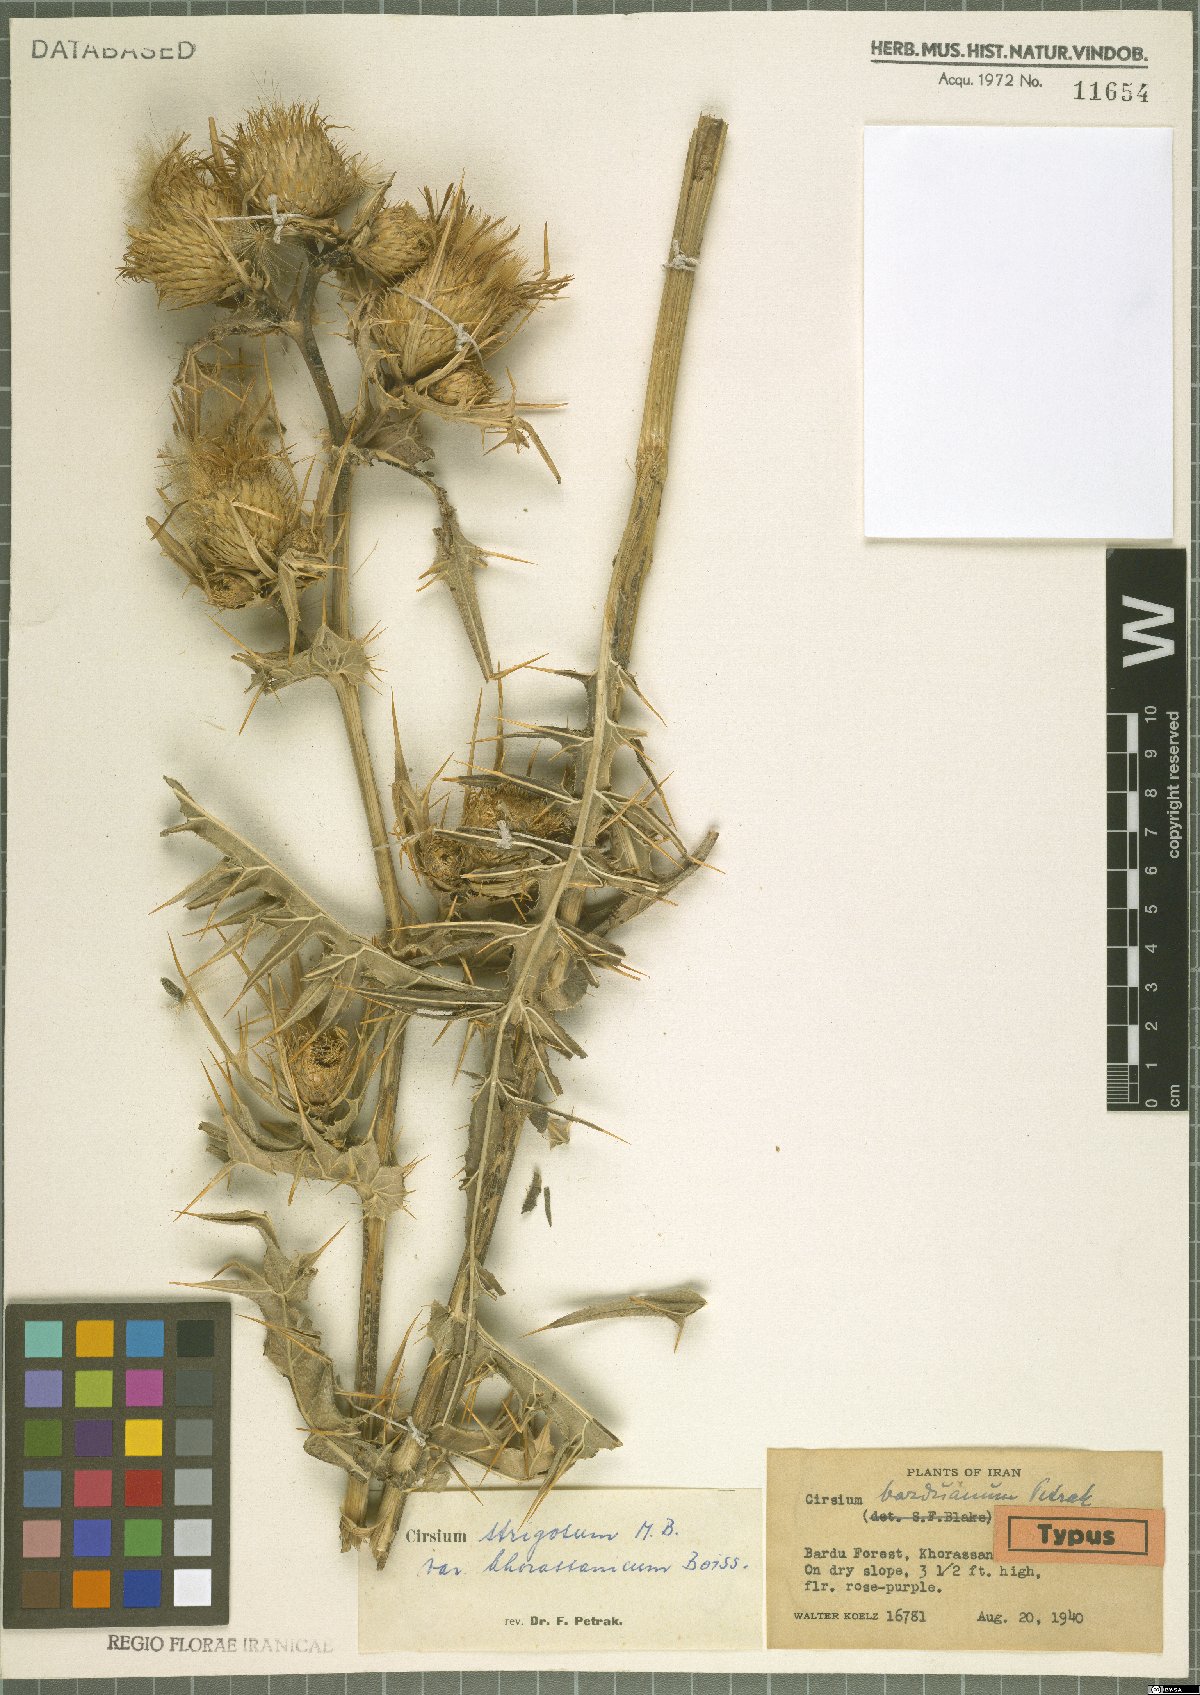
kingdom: Plantae
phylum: Tracheophyta
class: Magnoliopsida
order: Asterales
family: Asteraceae
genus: Cirsium
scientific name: Cirsium vulgare
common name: Bull thistle
